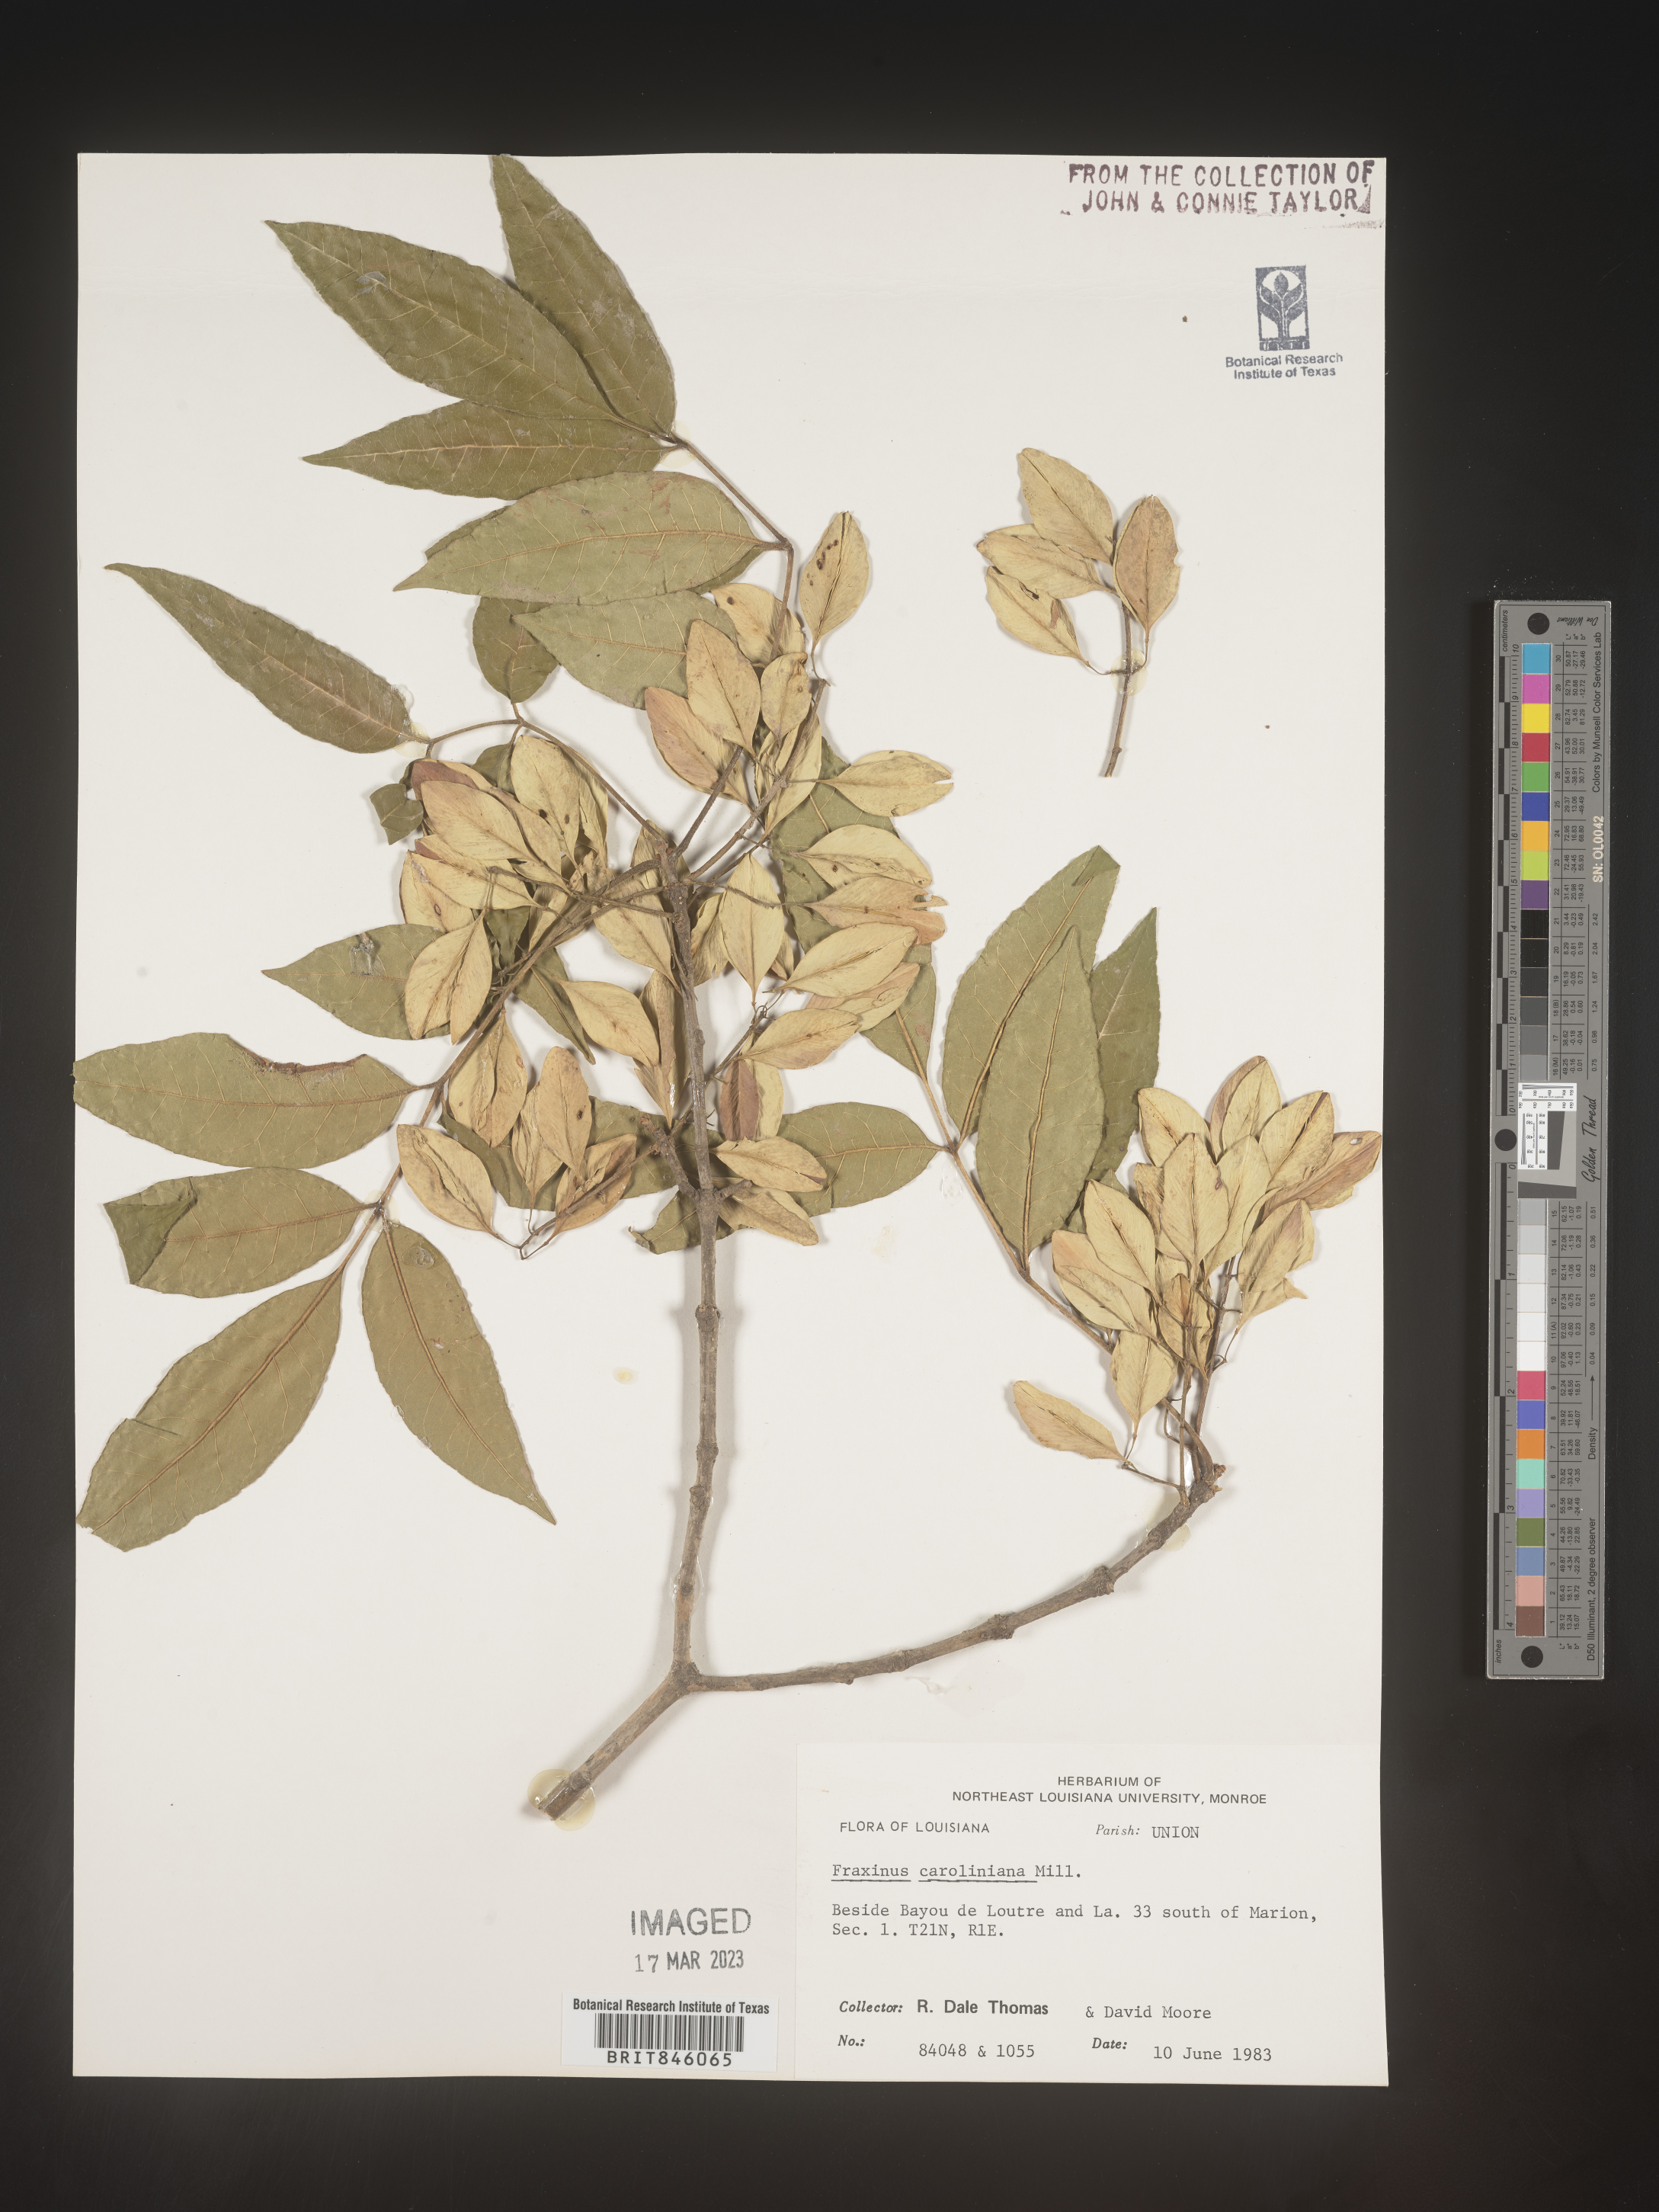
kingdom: Plantae
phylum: Tracheophyta
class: Magnoliopsida
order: Lamiales
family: Oleaceae
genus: Fraxinus
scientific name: Fraxinus caroliniana
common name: Carolina ash
